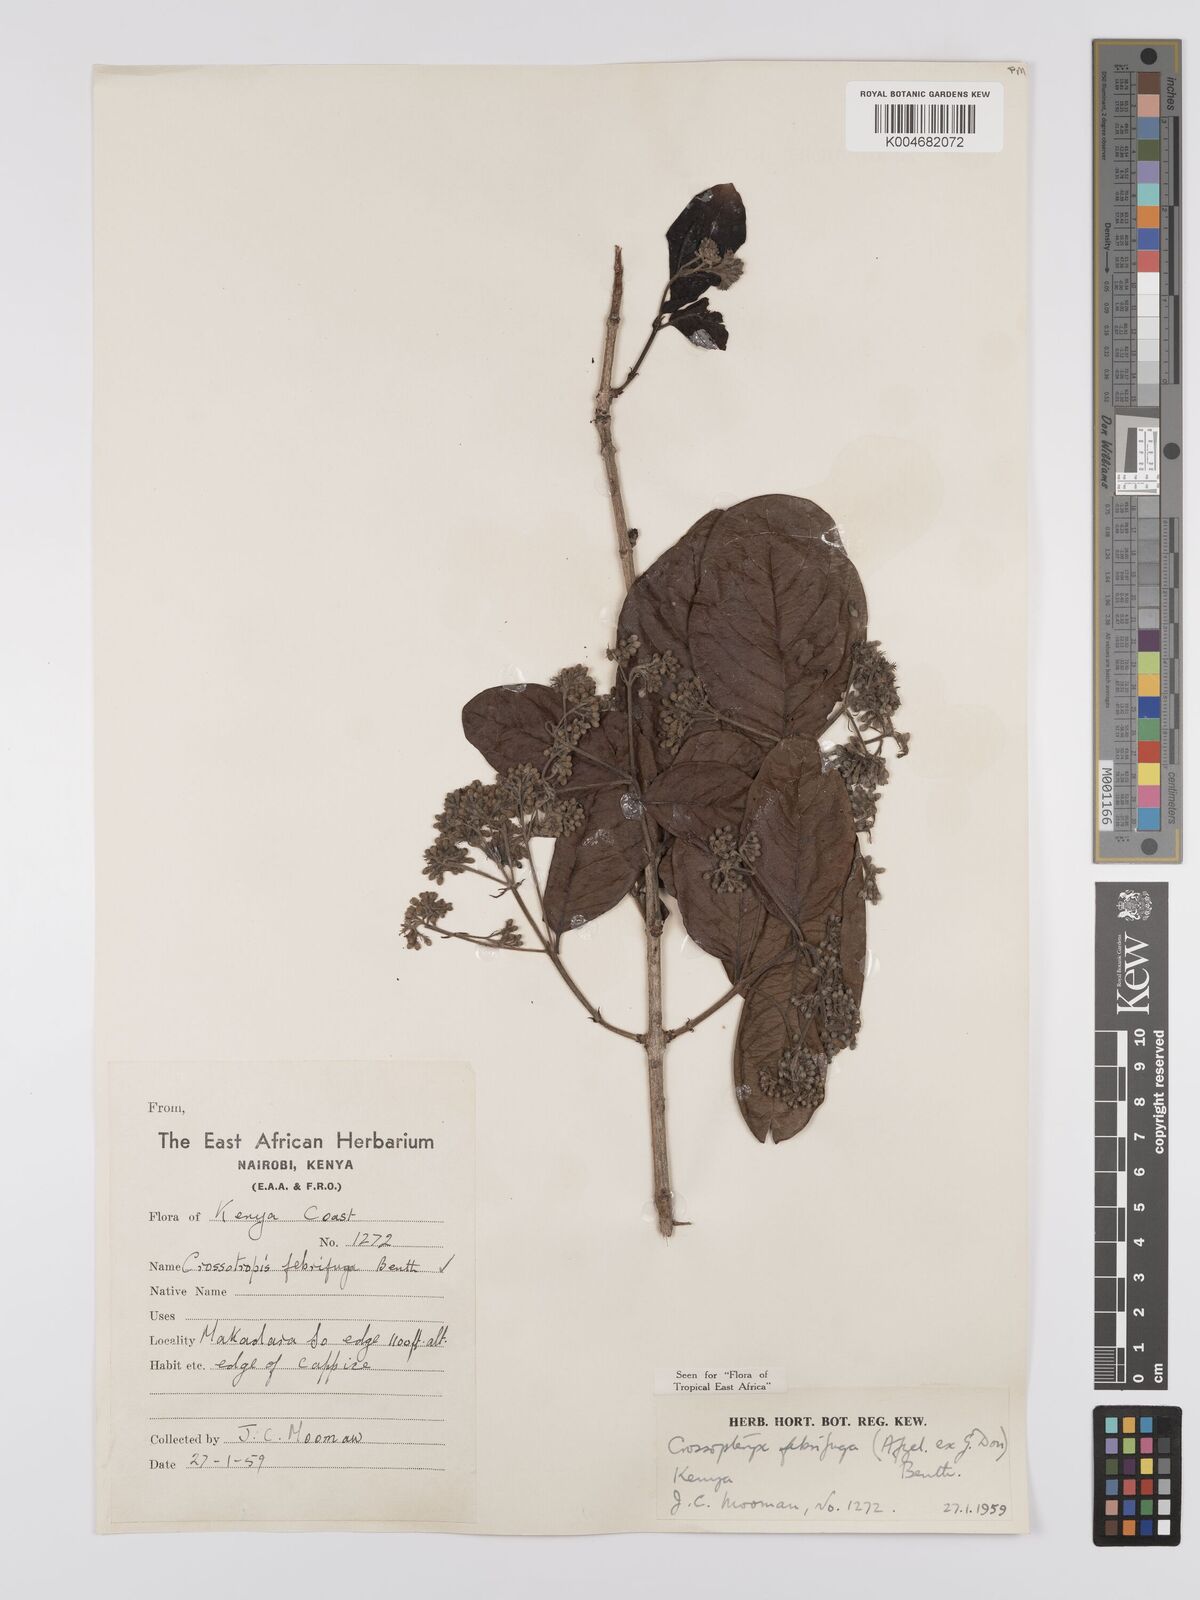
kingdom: Plantae
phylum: Tracheophyta
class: Magnoliopsida
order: Gentianales
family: Rubiaceae
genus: Crossopteryx
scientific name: Crossopteryx febrifuga
